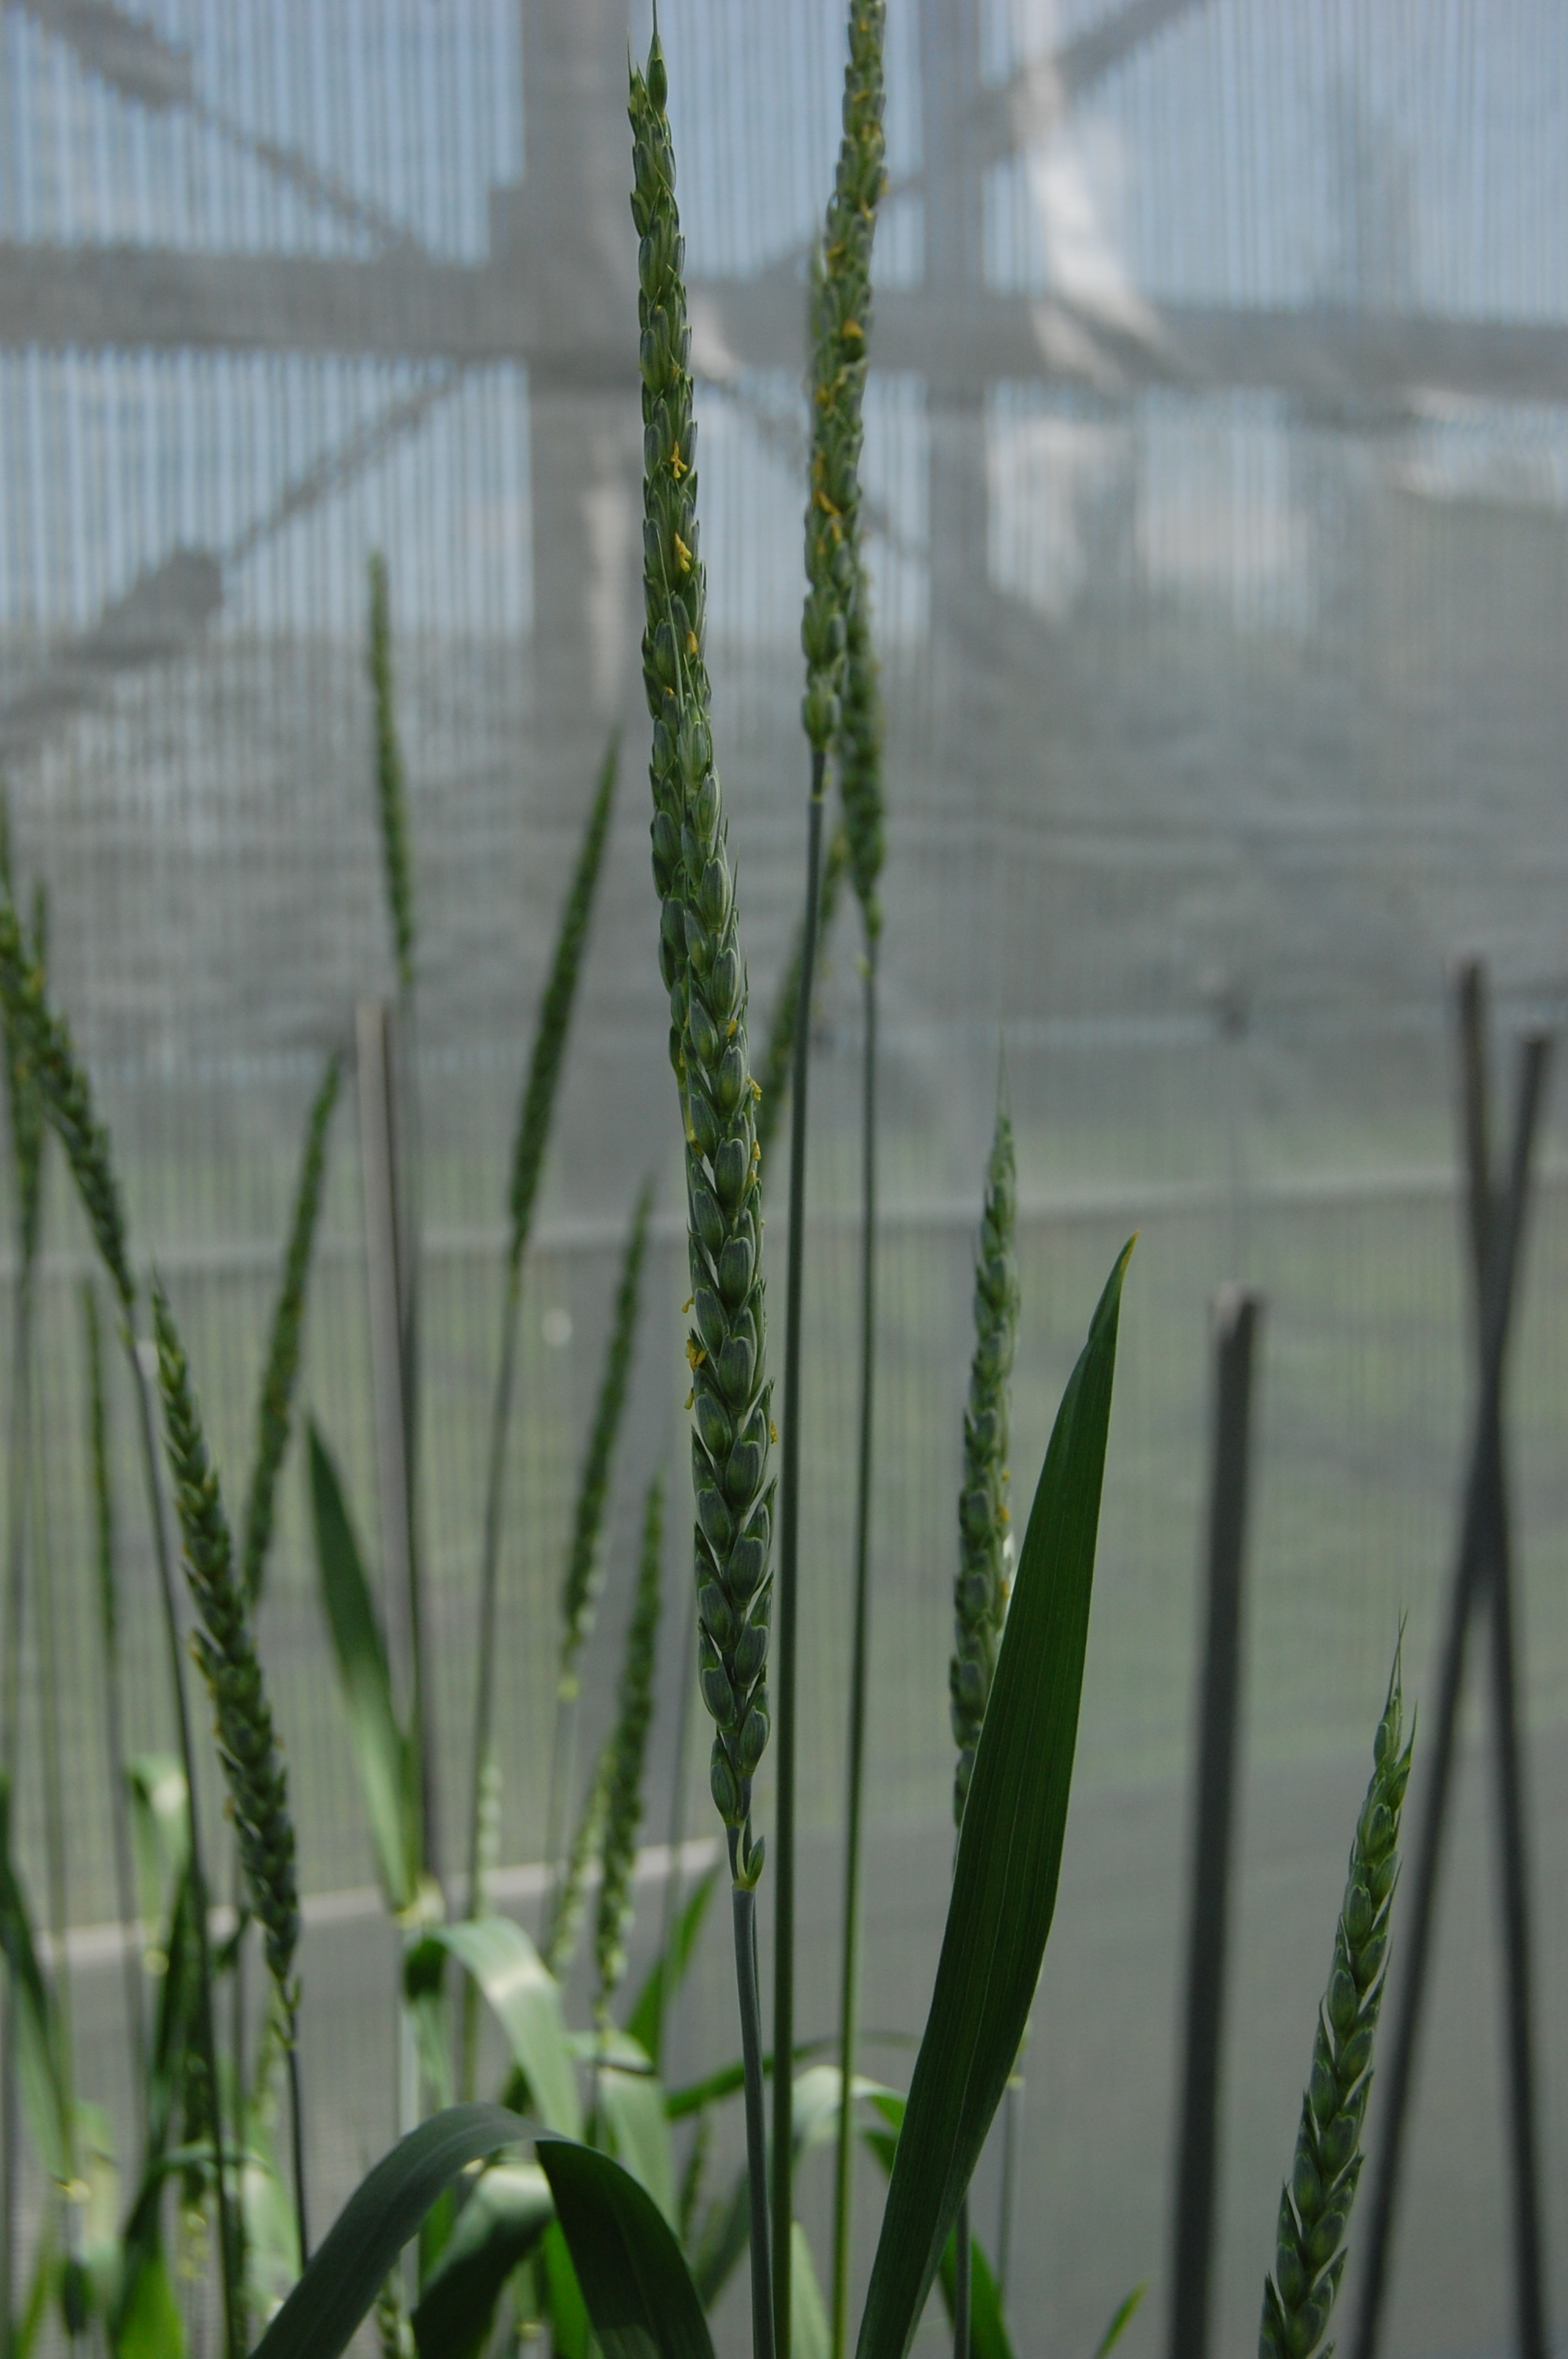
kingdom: Plantae
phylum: Tracheophyta
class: Liliopsida
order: Poales
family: Poaceae
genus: Triticum
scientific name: Triticum aestivum
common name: Common wheat
